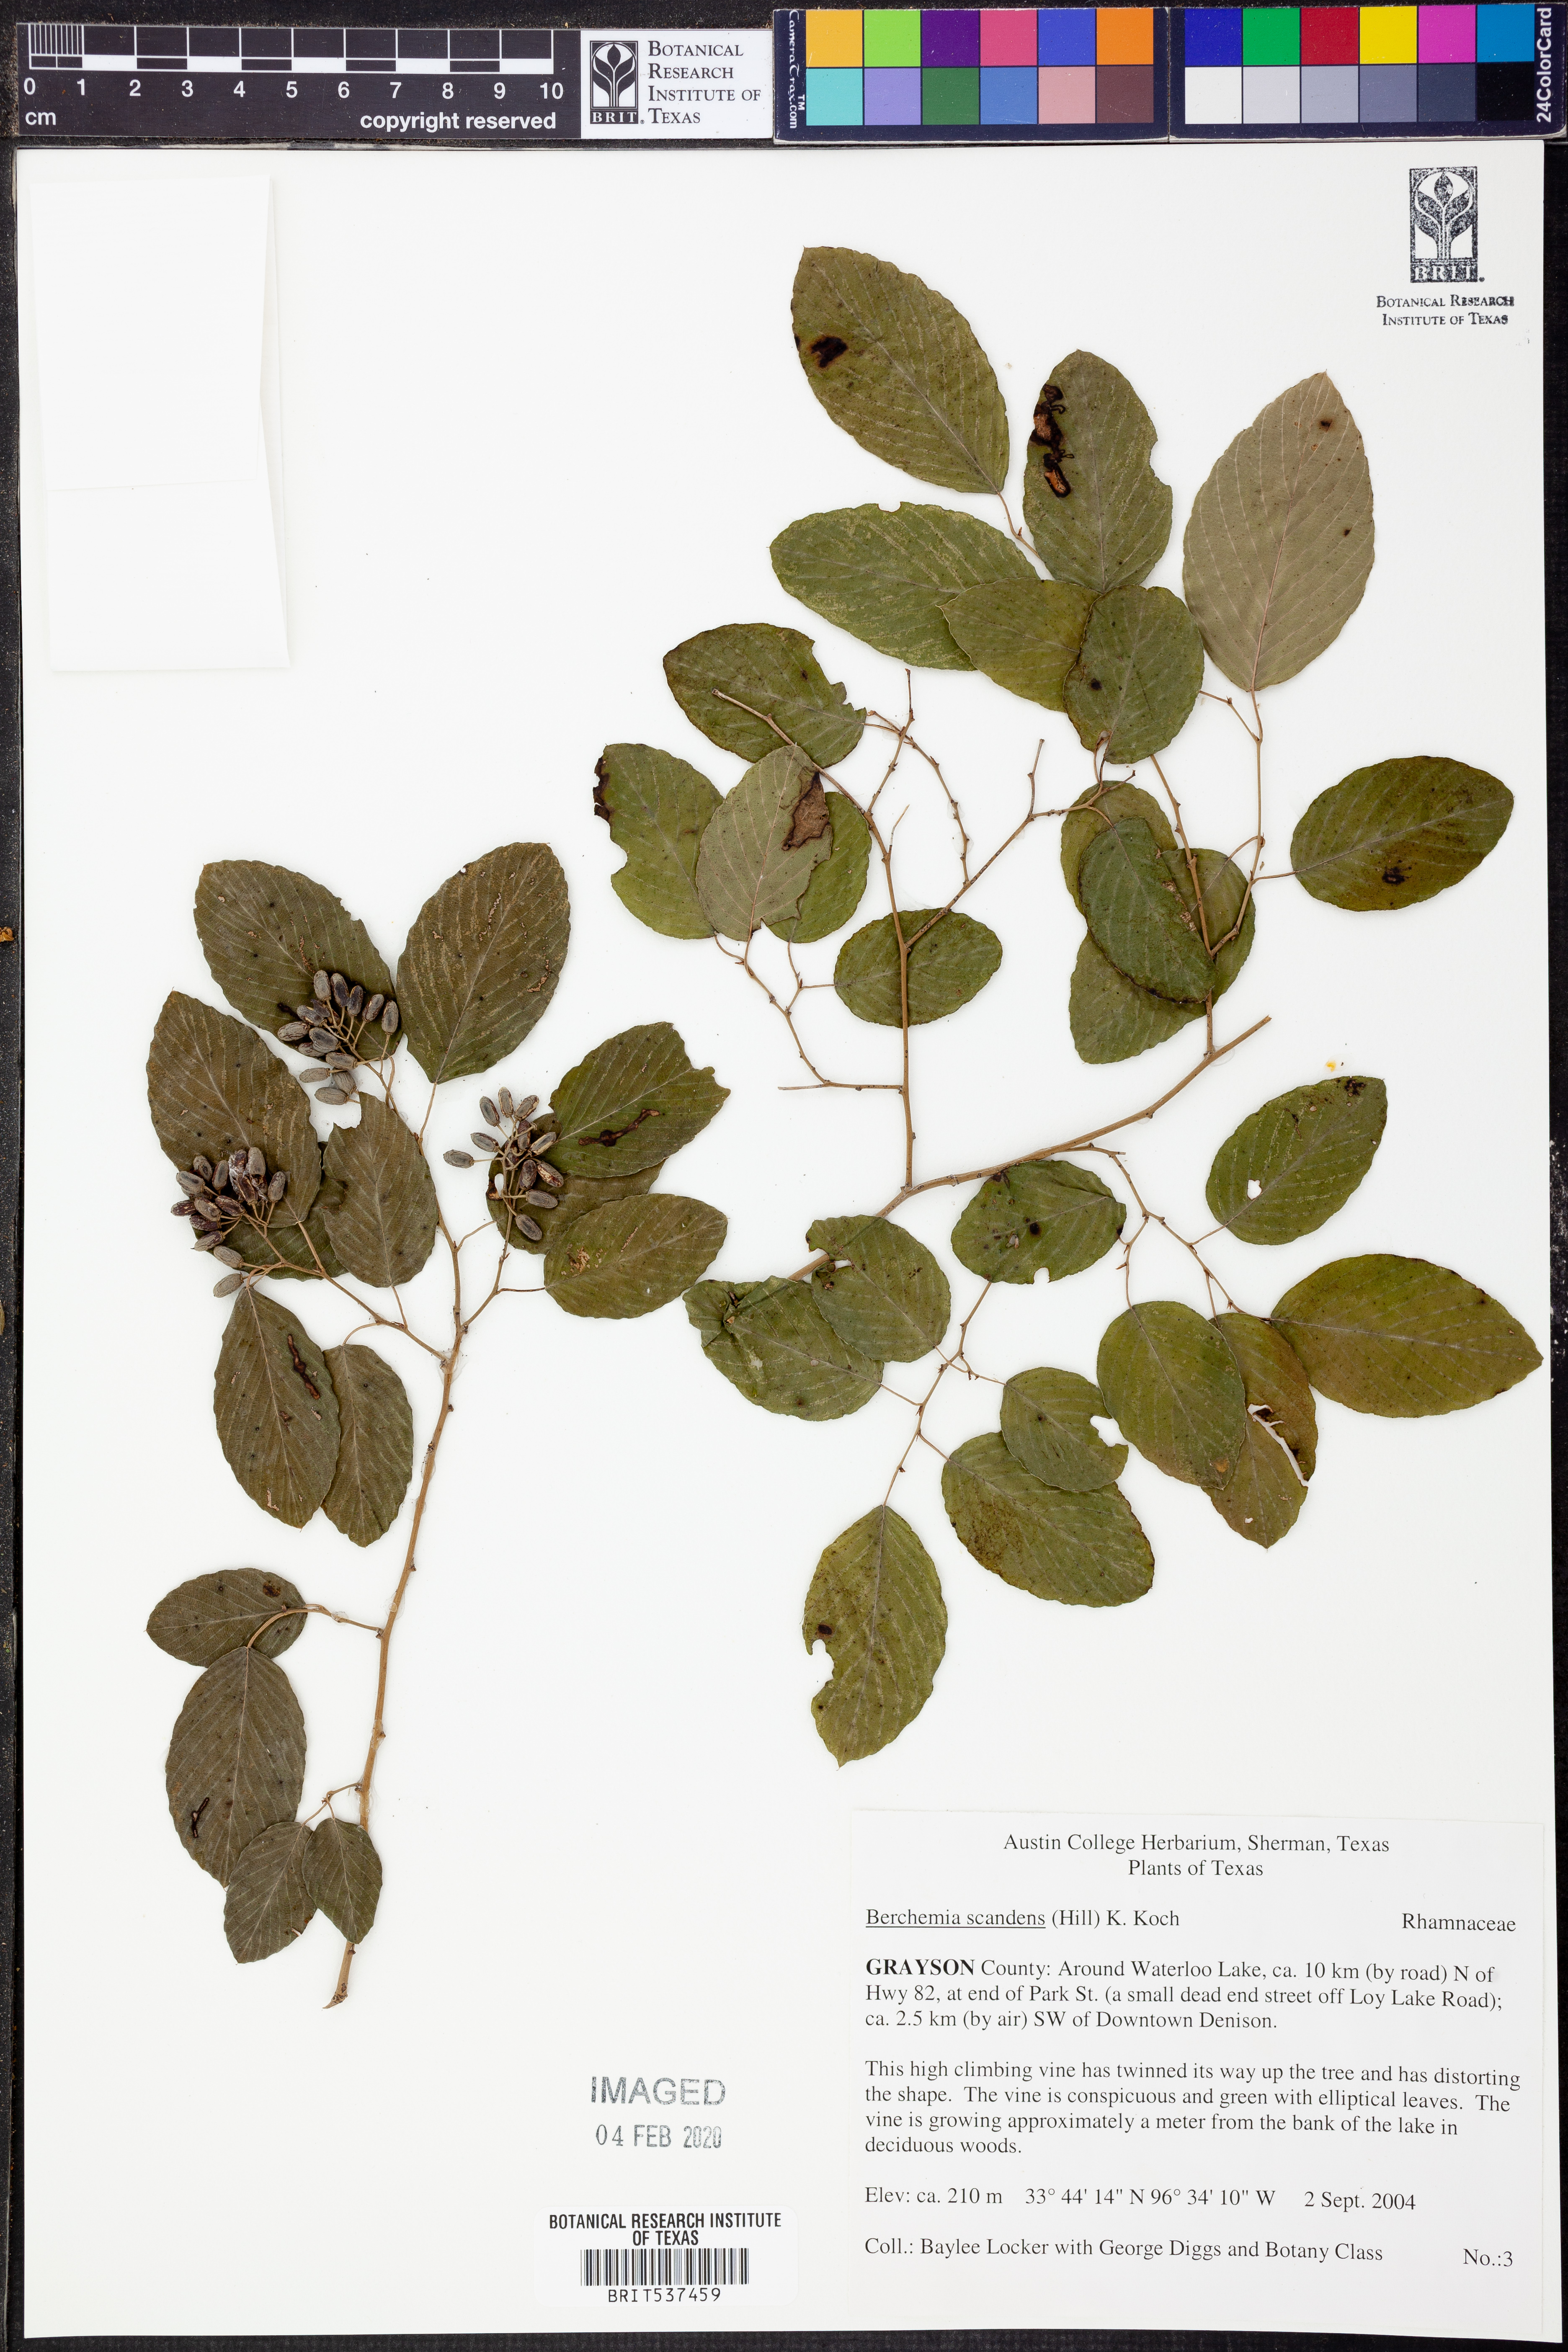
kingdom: Plantae
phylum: Tracheophyta
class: Magnoliopsida
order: Rosales
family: Rhamnaceae
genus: Berchemia
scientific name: Berchemia scandens
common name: Supplejack
